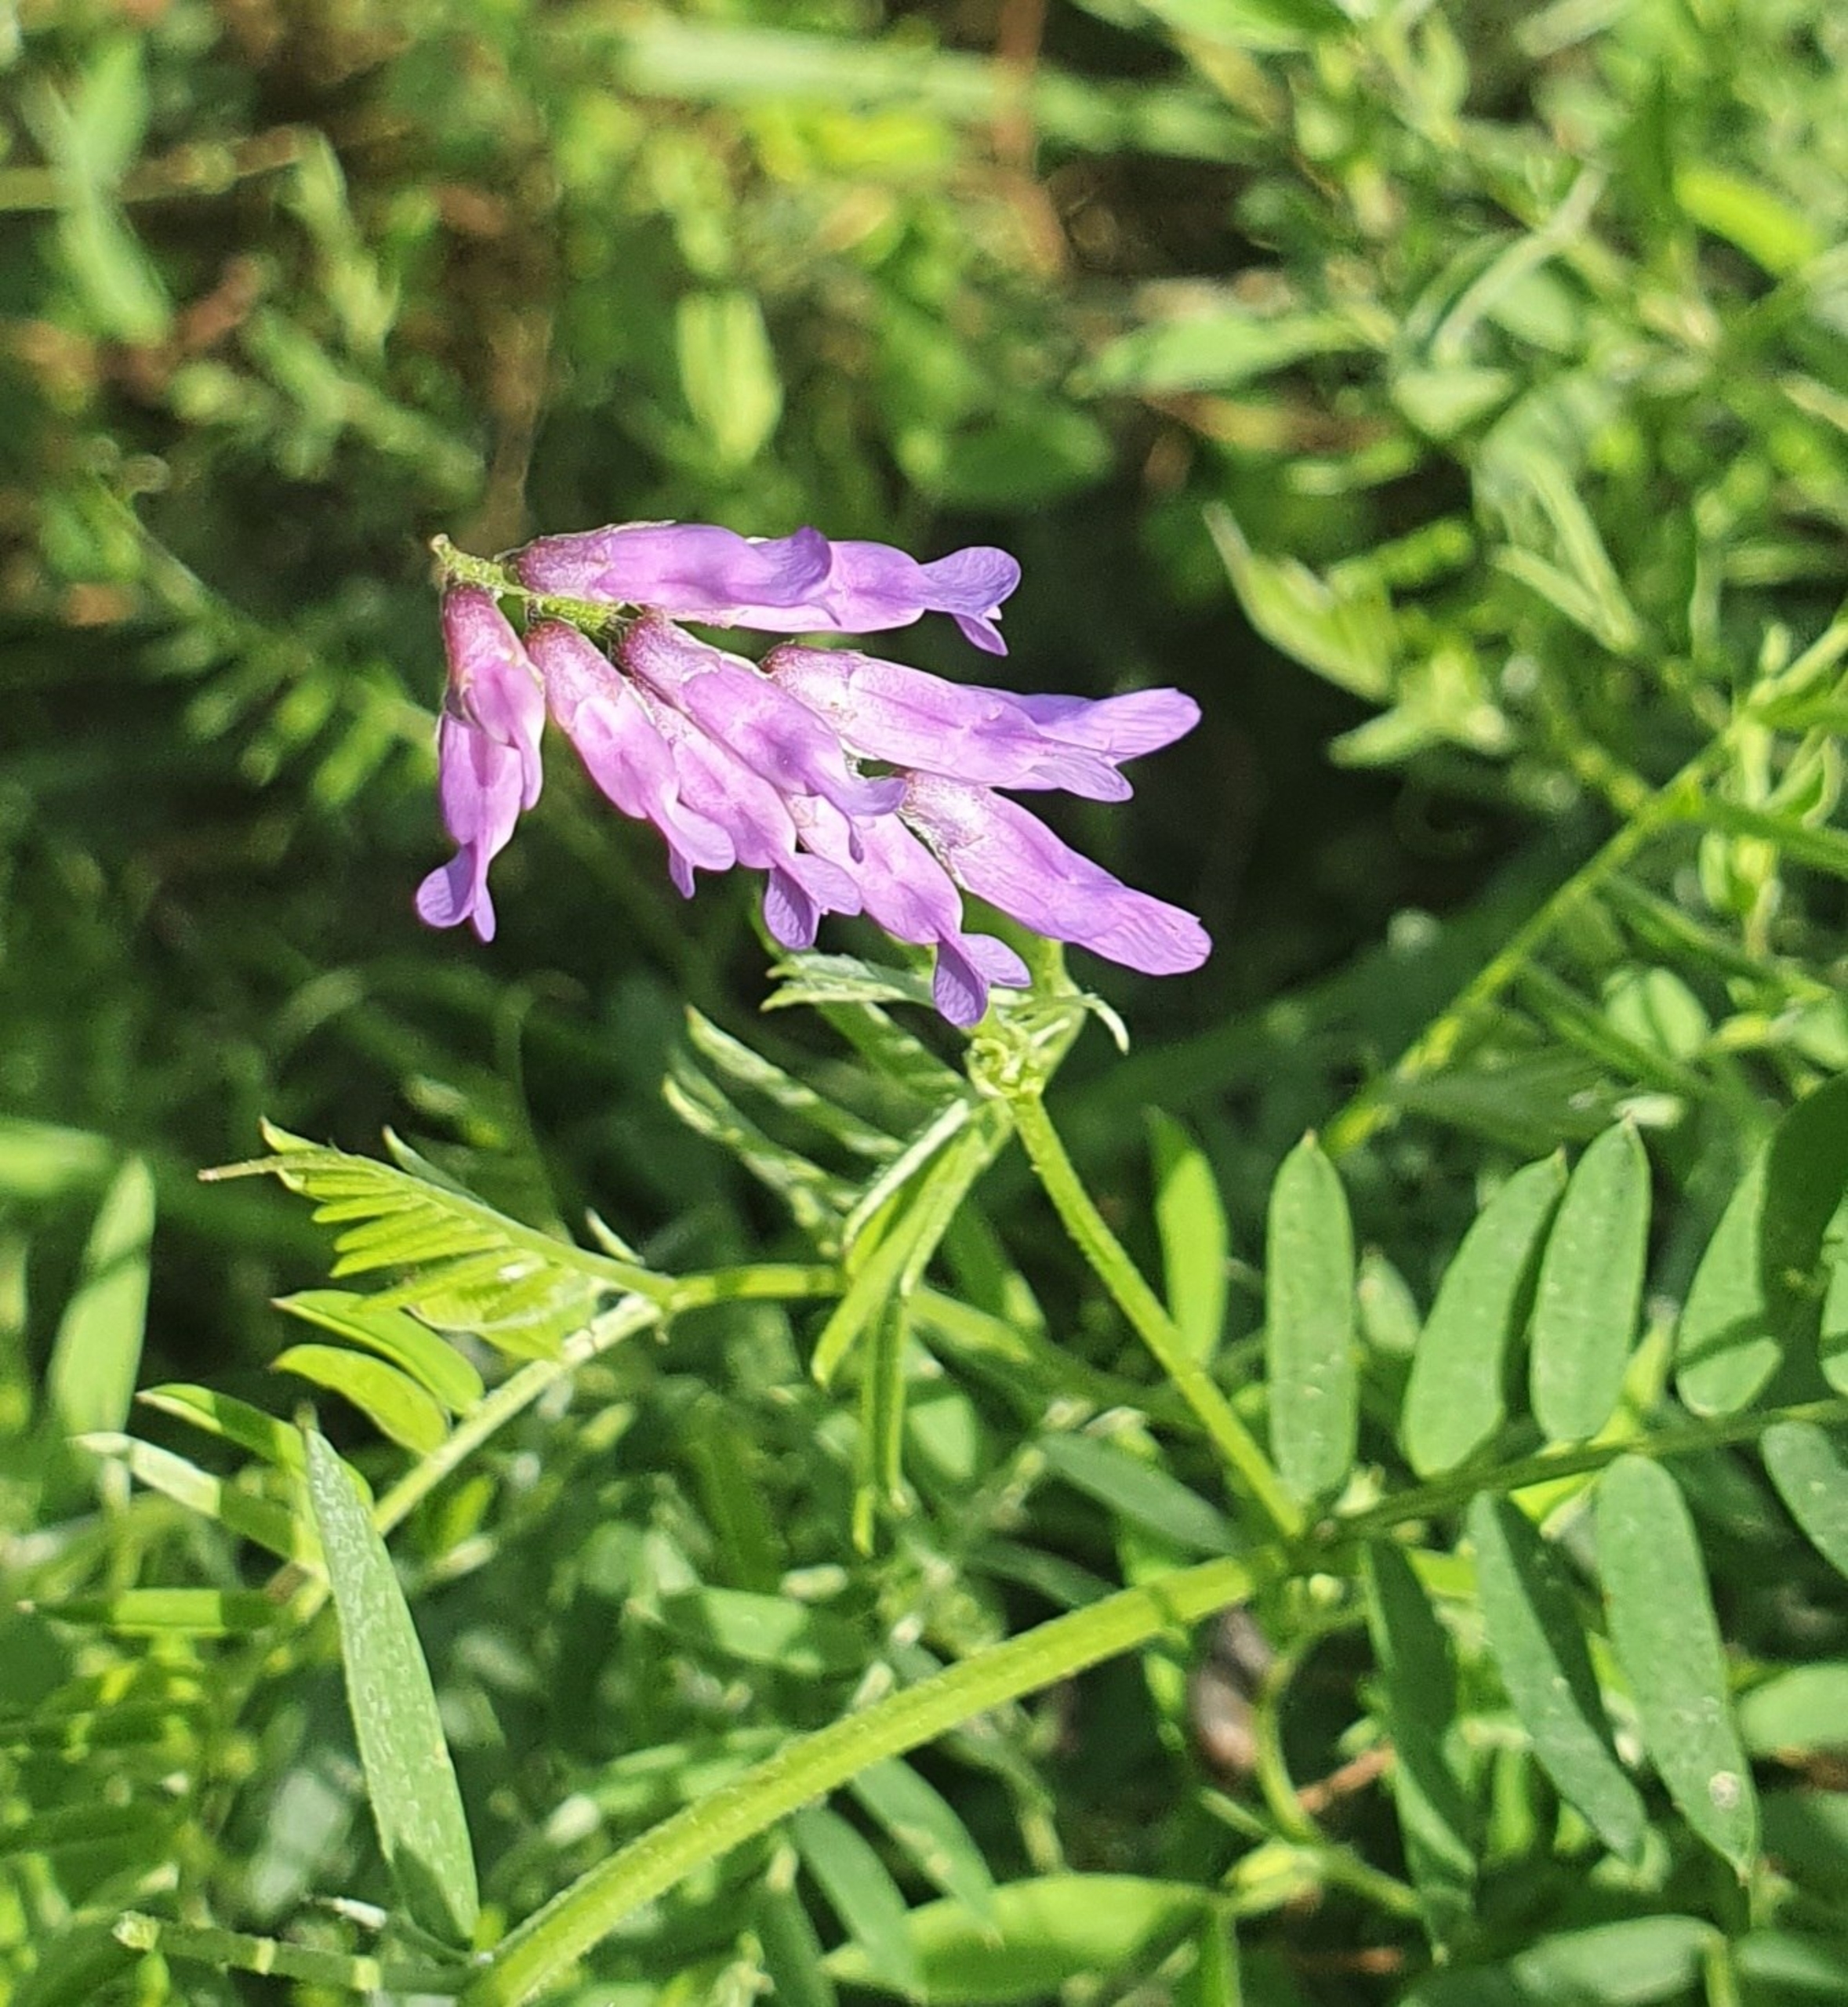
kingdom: Plantae
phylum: Tracheophyta
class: Magnoliopsida
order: Fabales
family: Fabaceae
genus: Vicia
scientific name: Vicia cracca
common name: Muse-vikke
